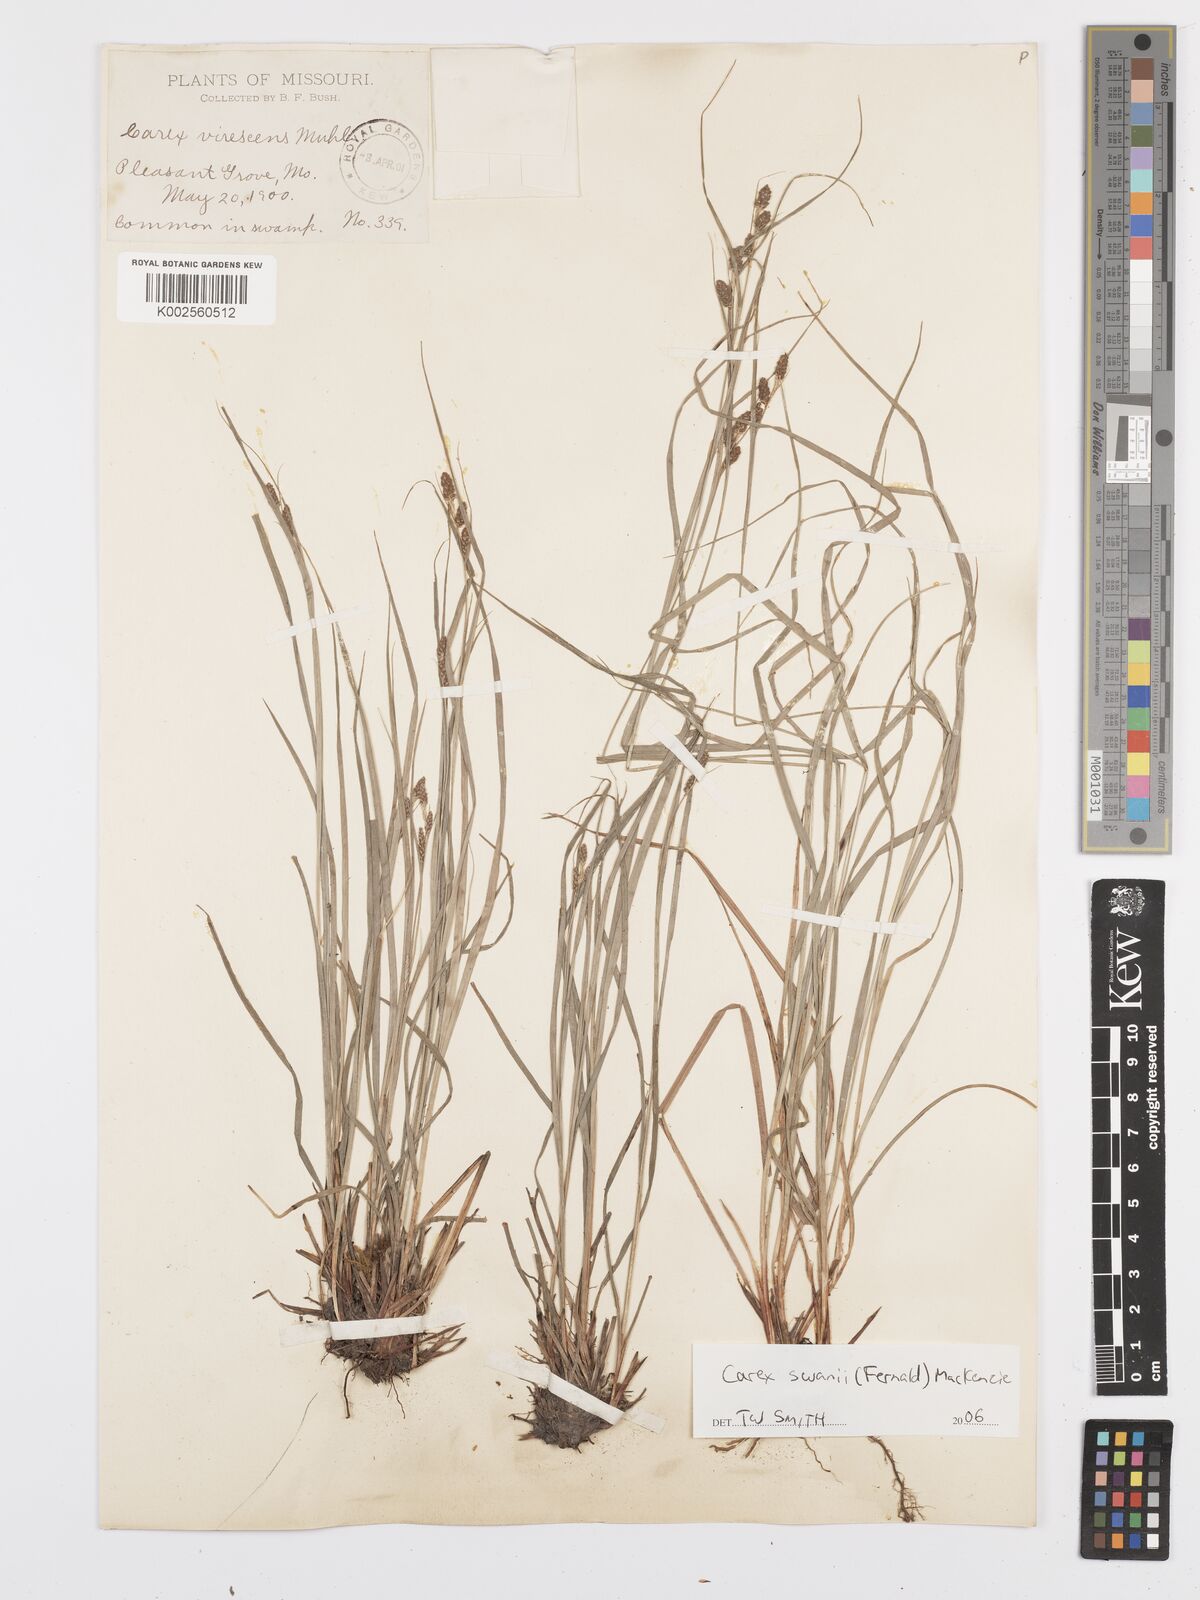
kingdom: Plantae
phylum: Tracheophyta
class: Liliopsida
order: Poales
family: Cyperaceae
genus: Carex
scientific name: Carex swanii
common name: Downy green sedge
